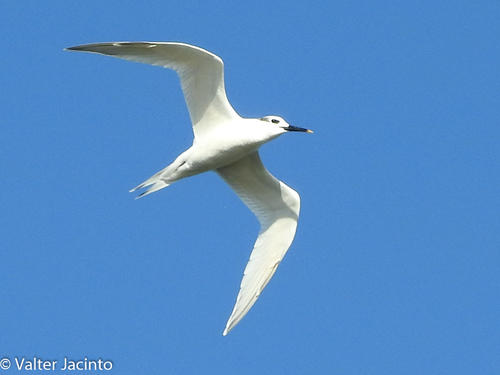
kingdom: Animalia
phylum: Chordata
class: Aves
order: Charadriiformes
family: Laridae
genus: Thalasseus
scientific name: Thalasseus sandvicensis
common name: Sandwich tern
